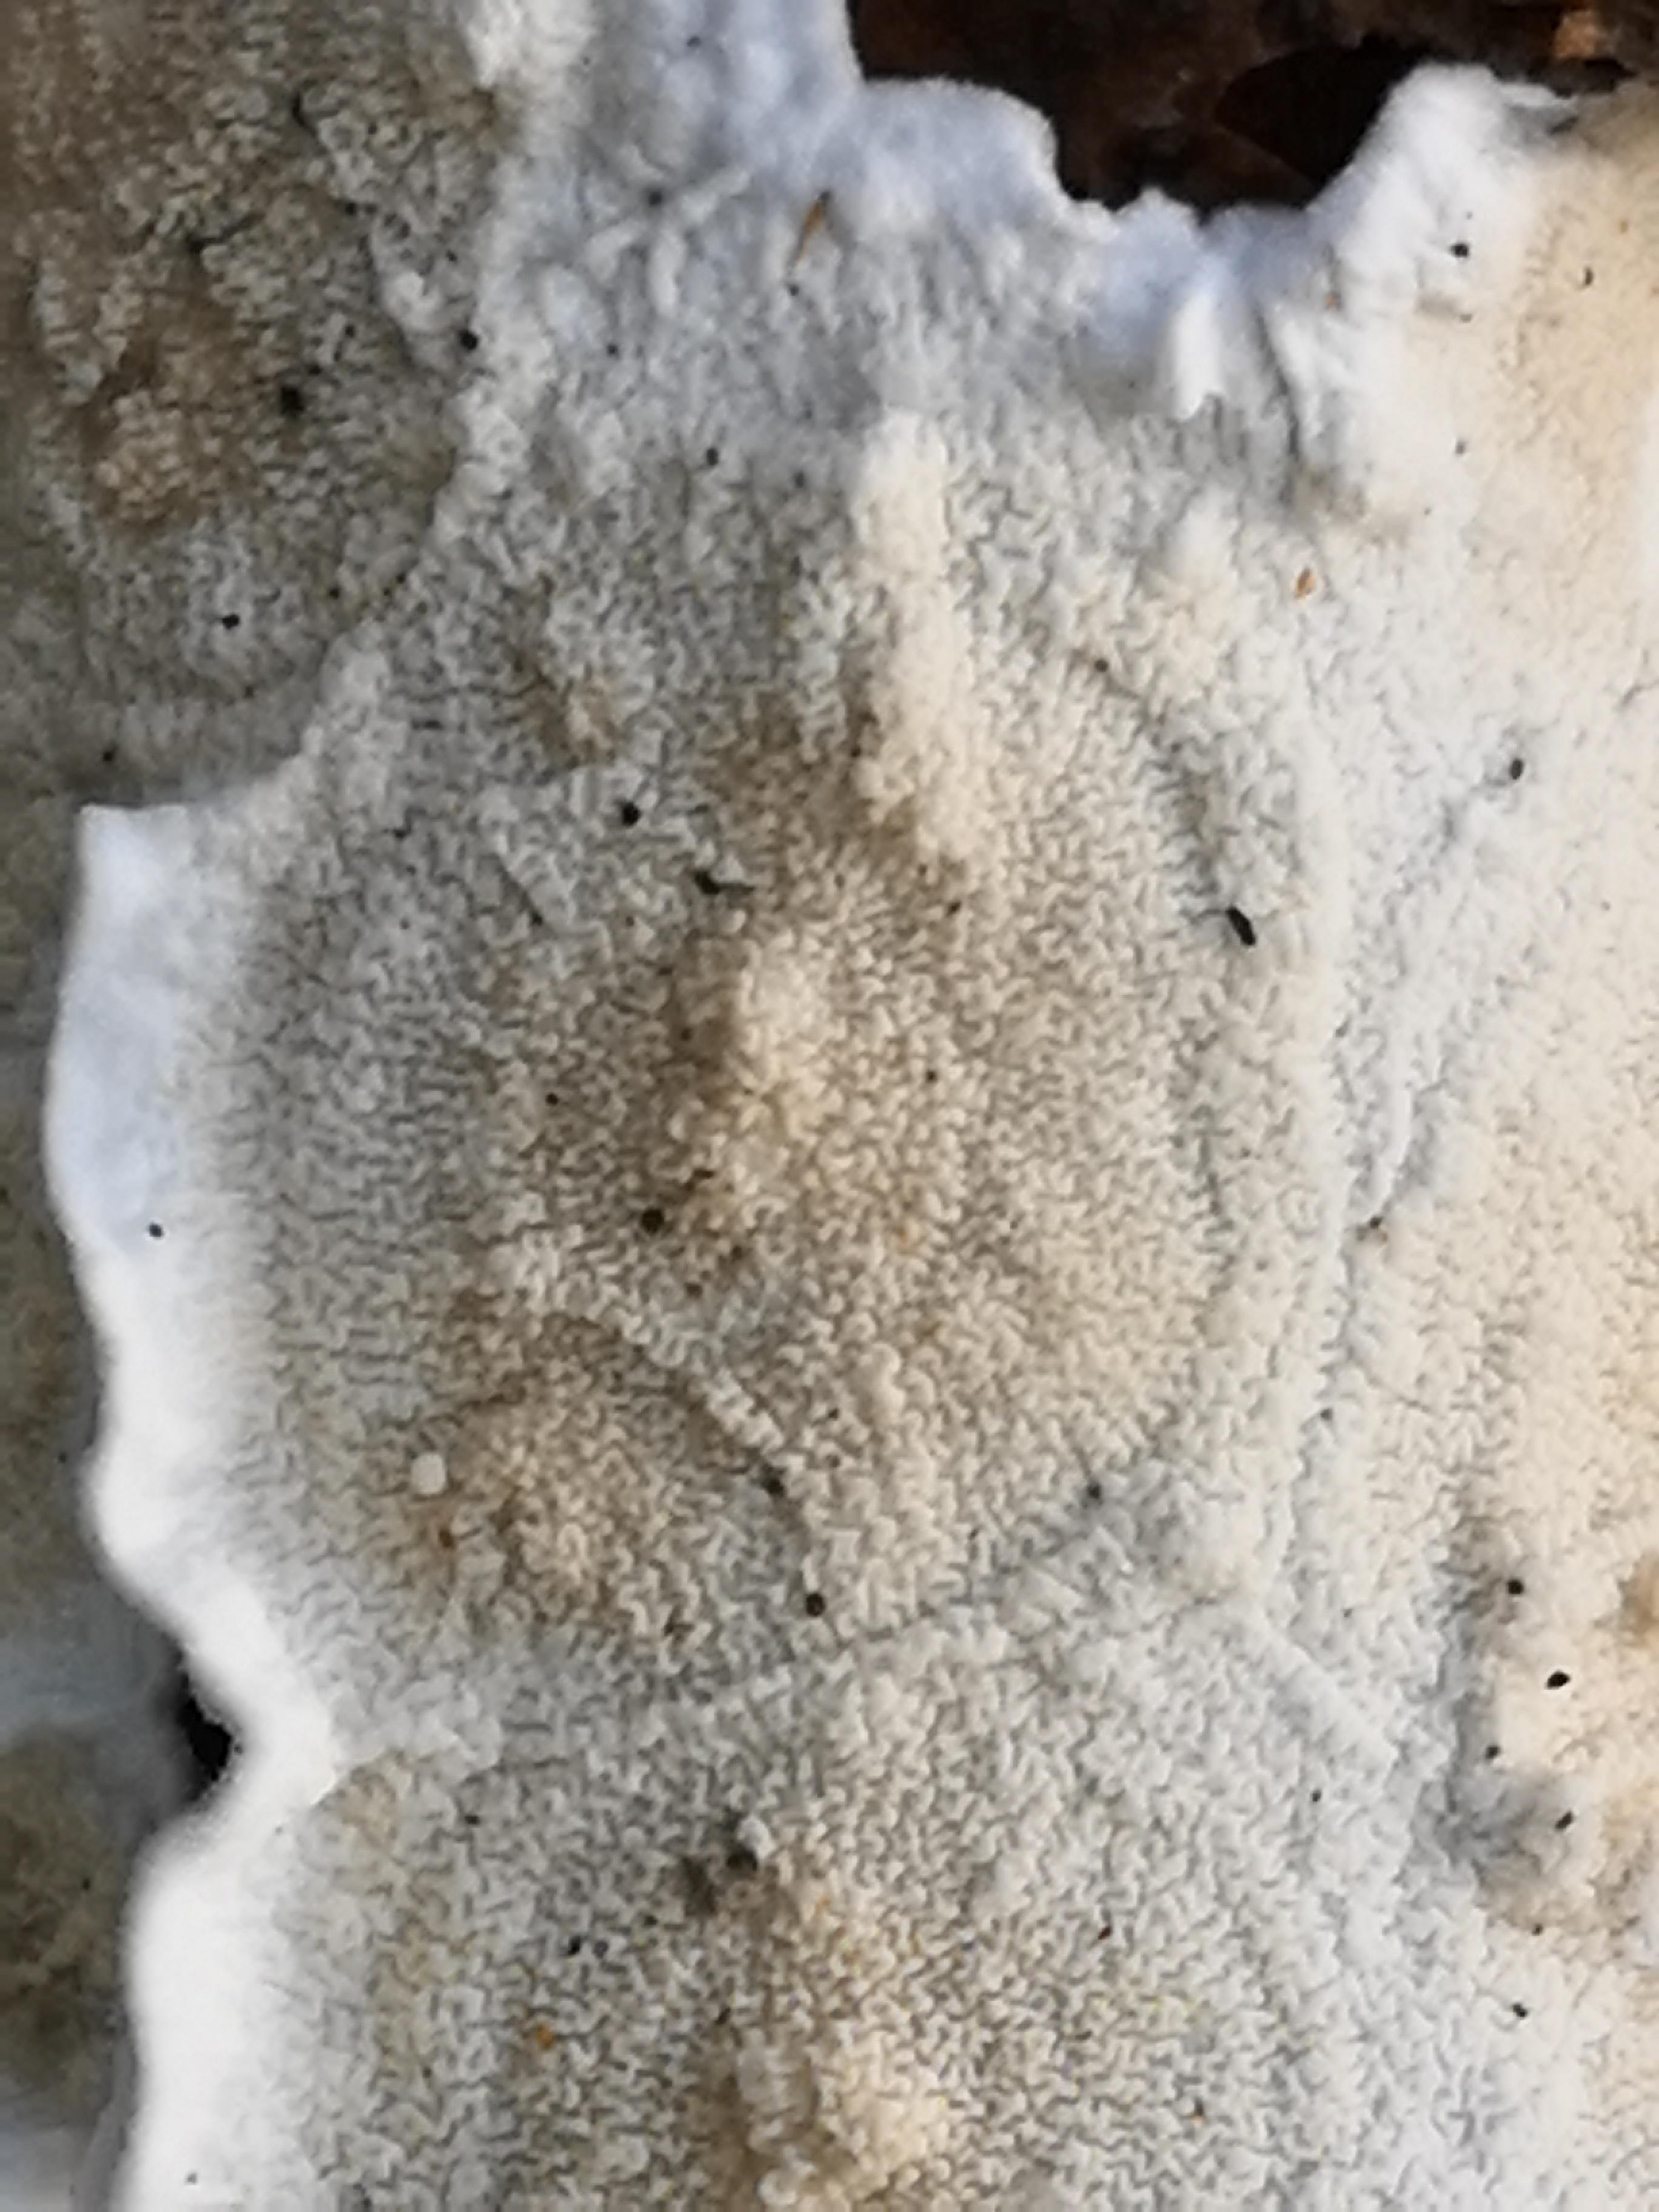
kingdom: Fungi
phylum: Basidiomycota
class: Agaricomycetes
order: Polyporales
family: Irpicaceae
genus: Byssomerulius
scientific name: Byssomerulius corium
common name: læder-åresvamp
